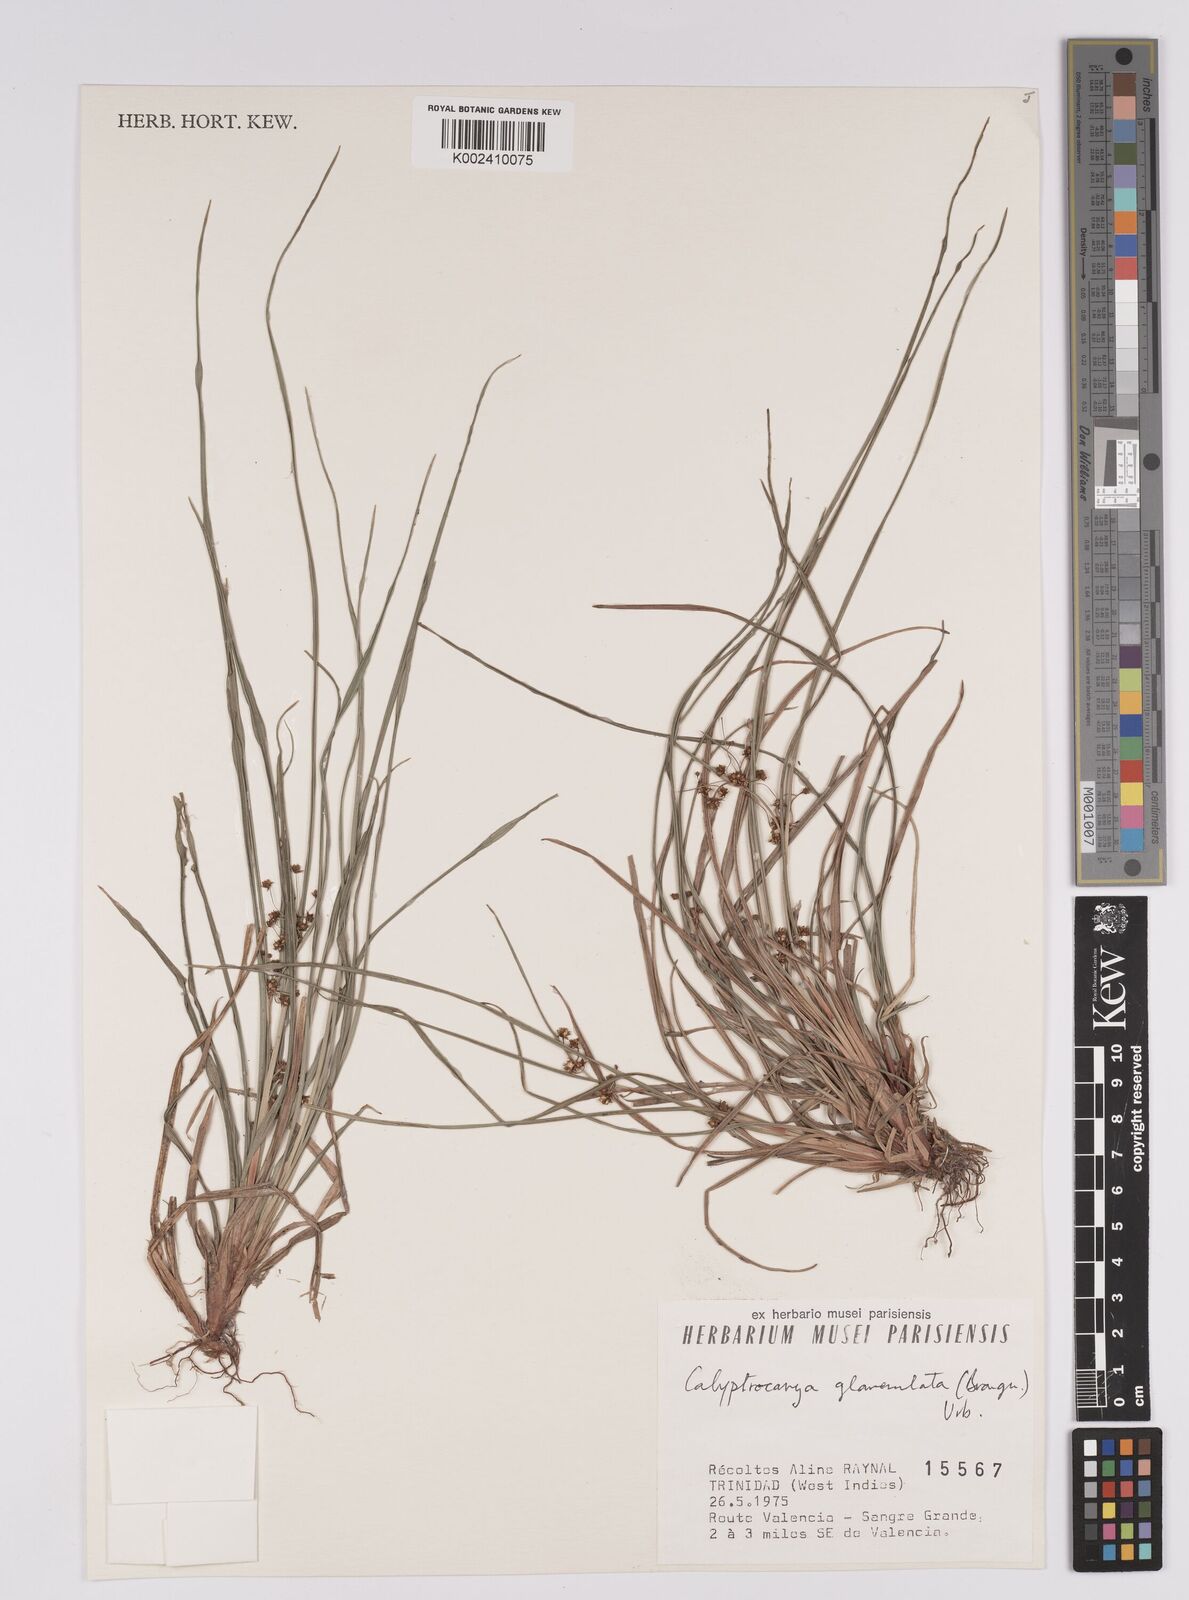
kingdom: Plantae
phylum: Tracheophyta
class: Liliopsida
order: Poales
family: Cyperaceae
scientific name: Cyperaceae
